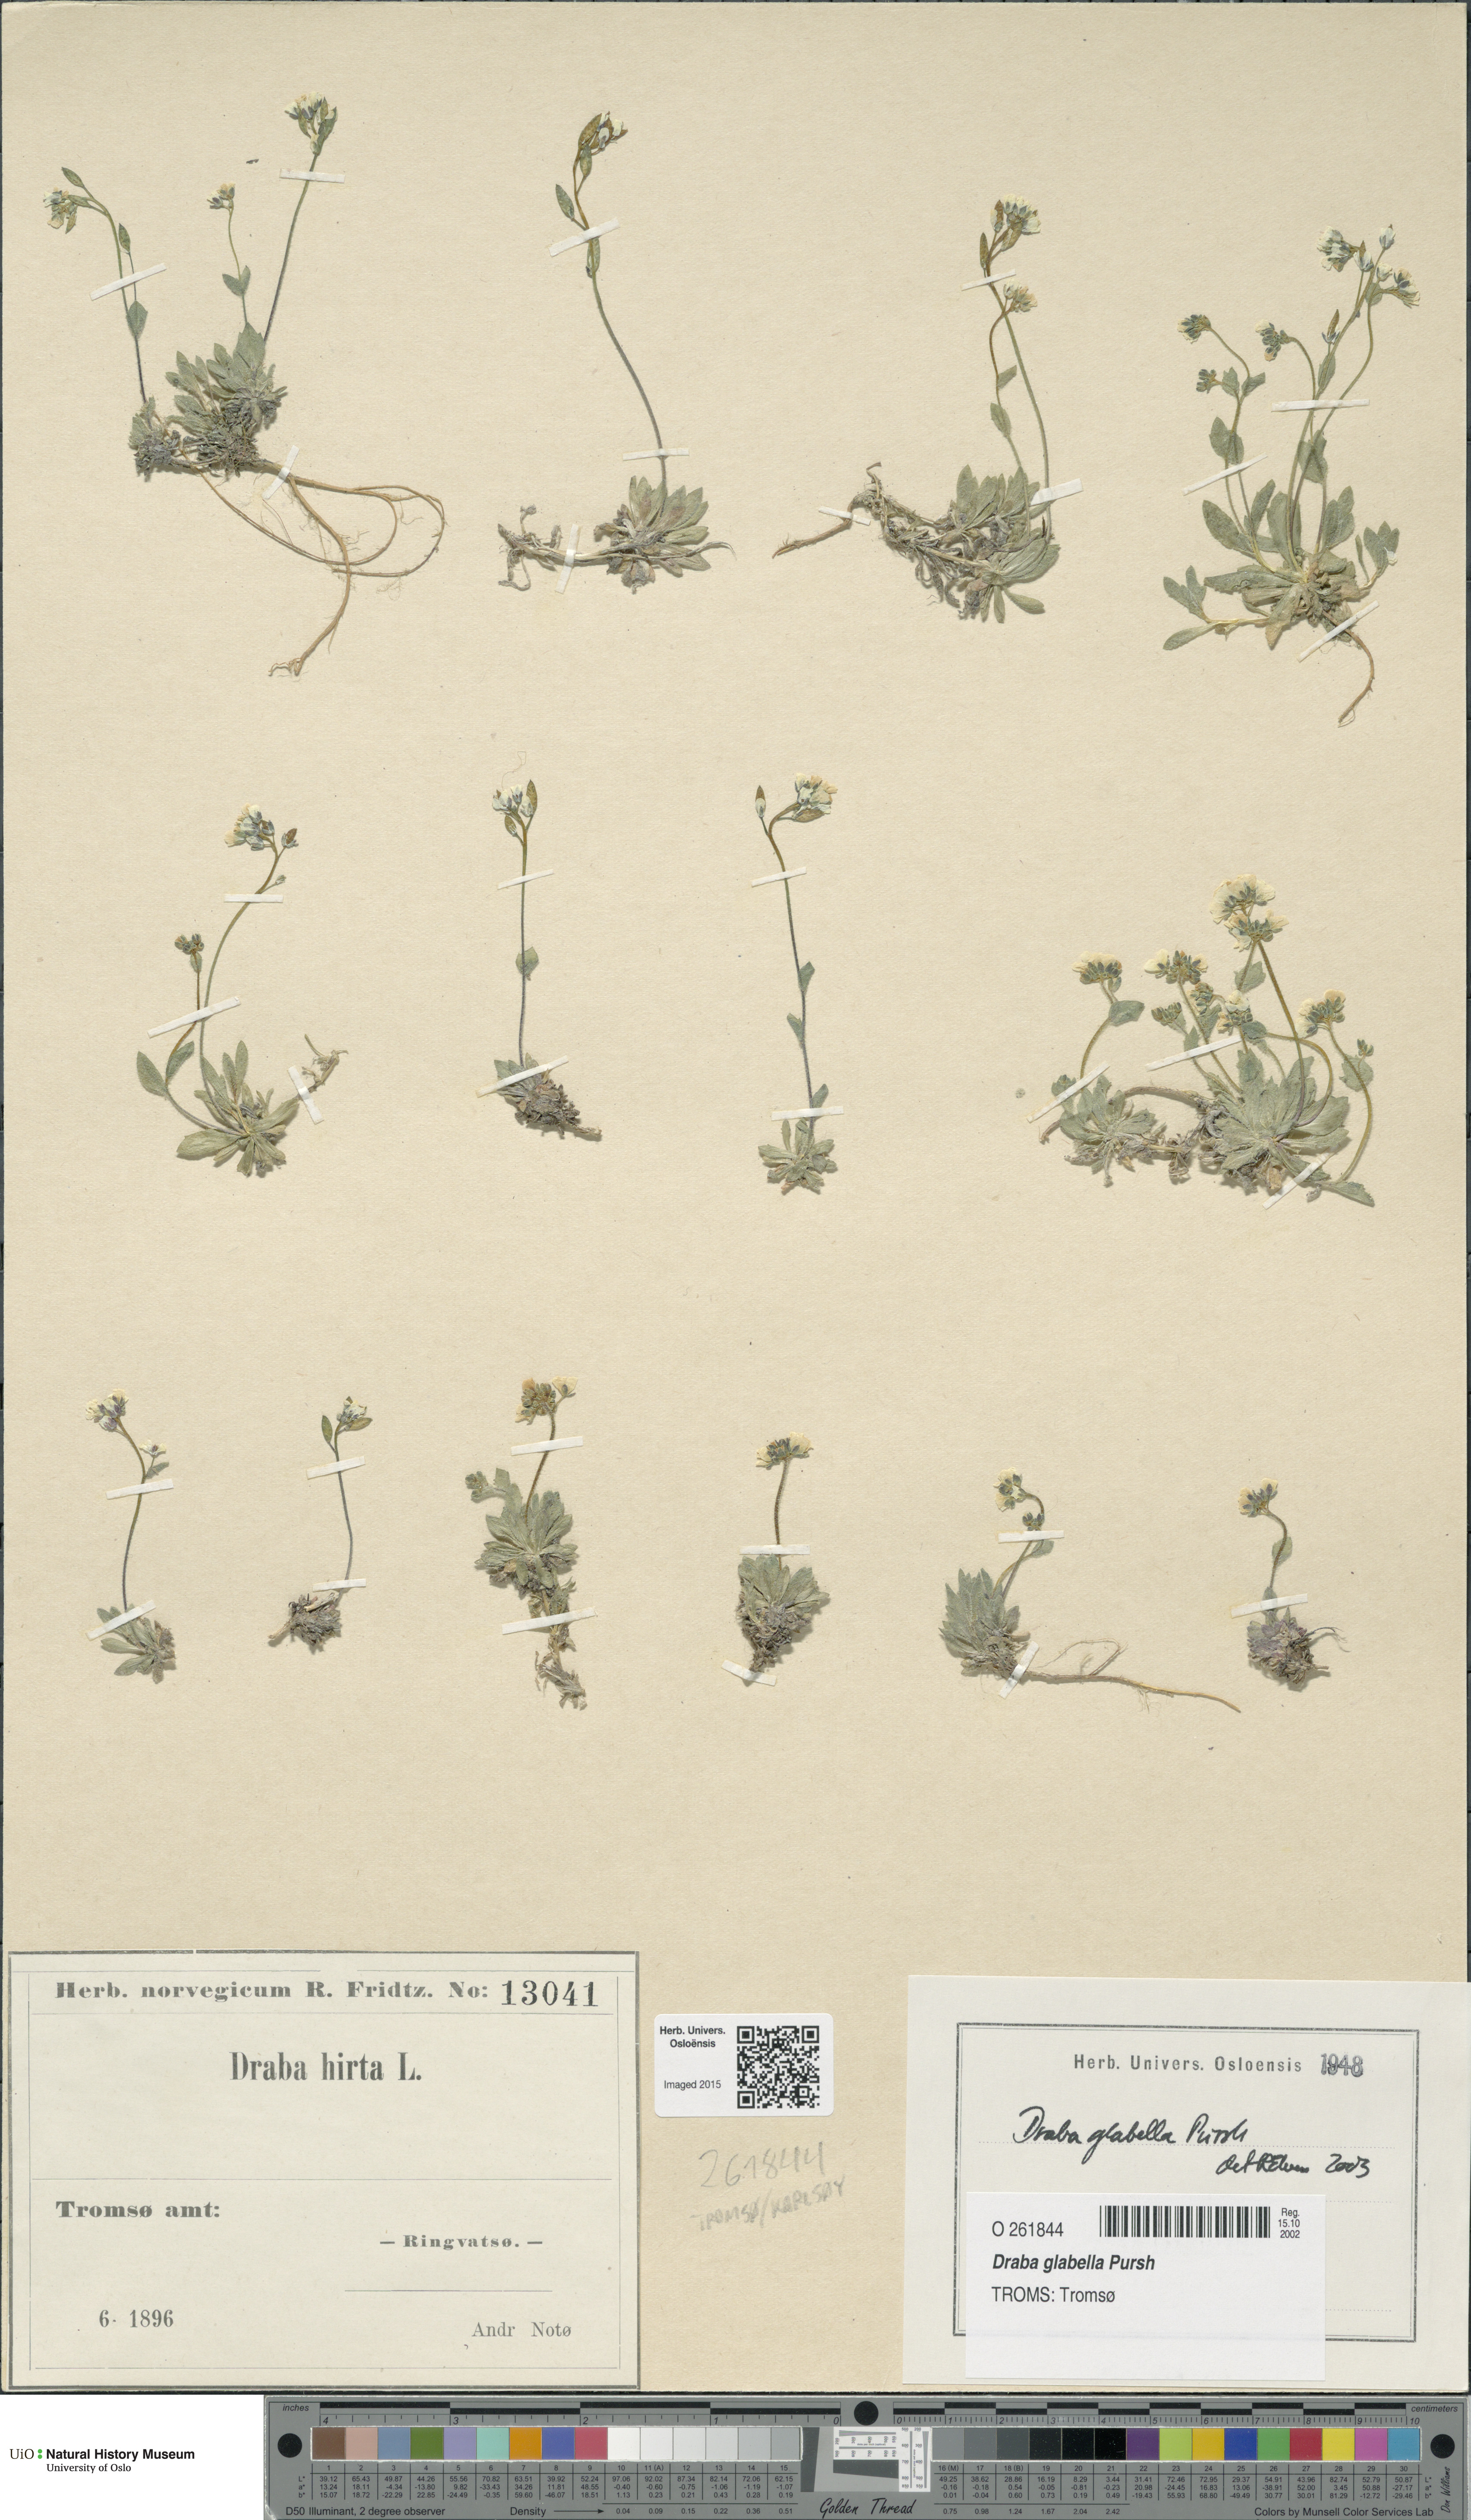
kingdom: Plantae
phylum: Tracheophyta
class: Magnoliopsida
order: Brassicales
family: Brassicaceae
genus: Draba
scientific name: Draba glabella
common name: Glaucous draba
